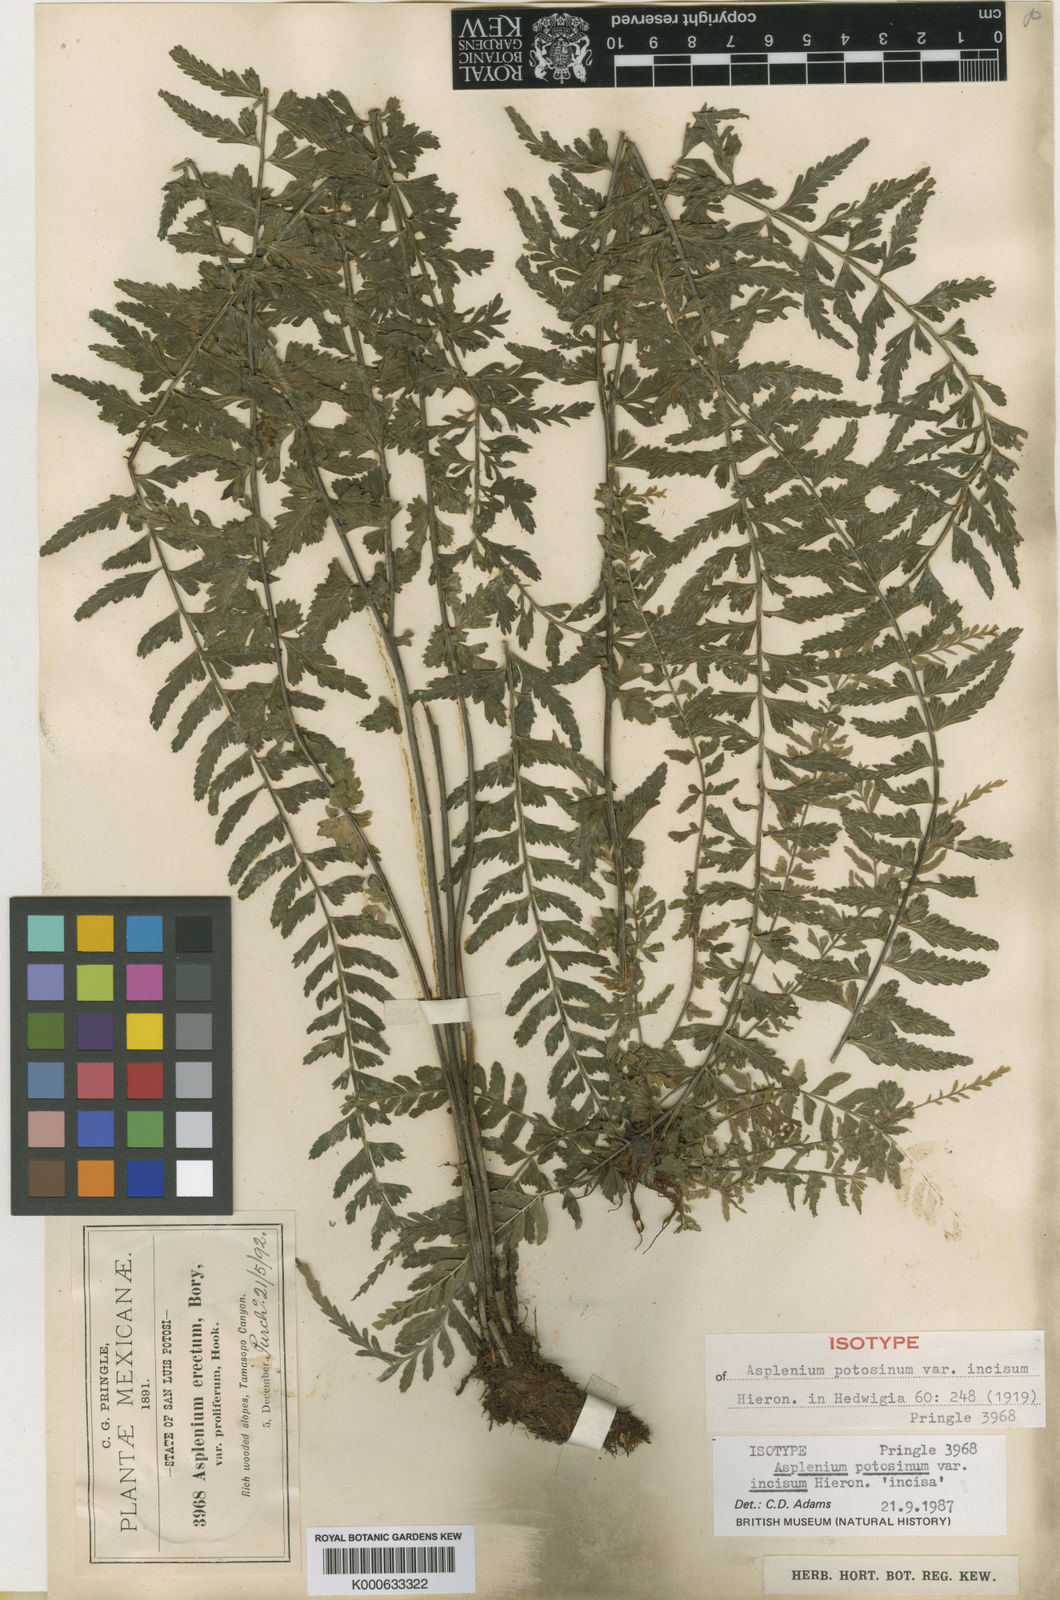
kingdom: Plantae
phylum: Tracheophyta
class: Polypodiopsida
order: Polypodiales
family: Aspleniaceae
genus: Asplenium
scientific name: Asplenium sessilifolium
